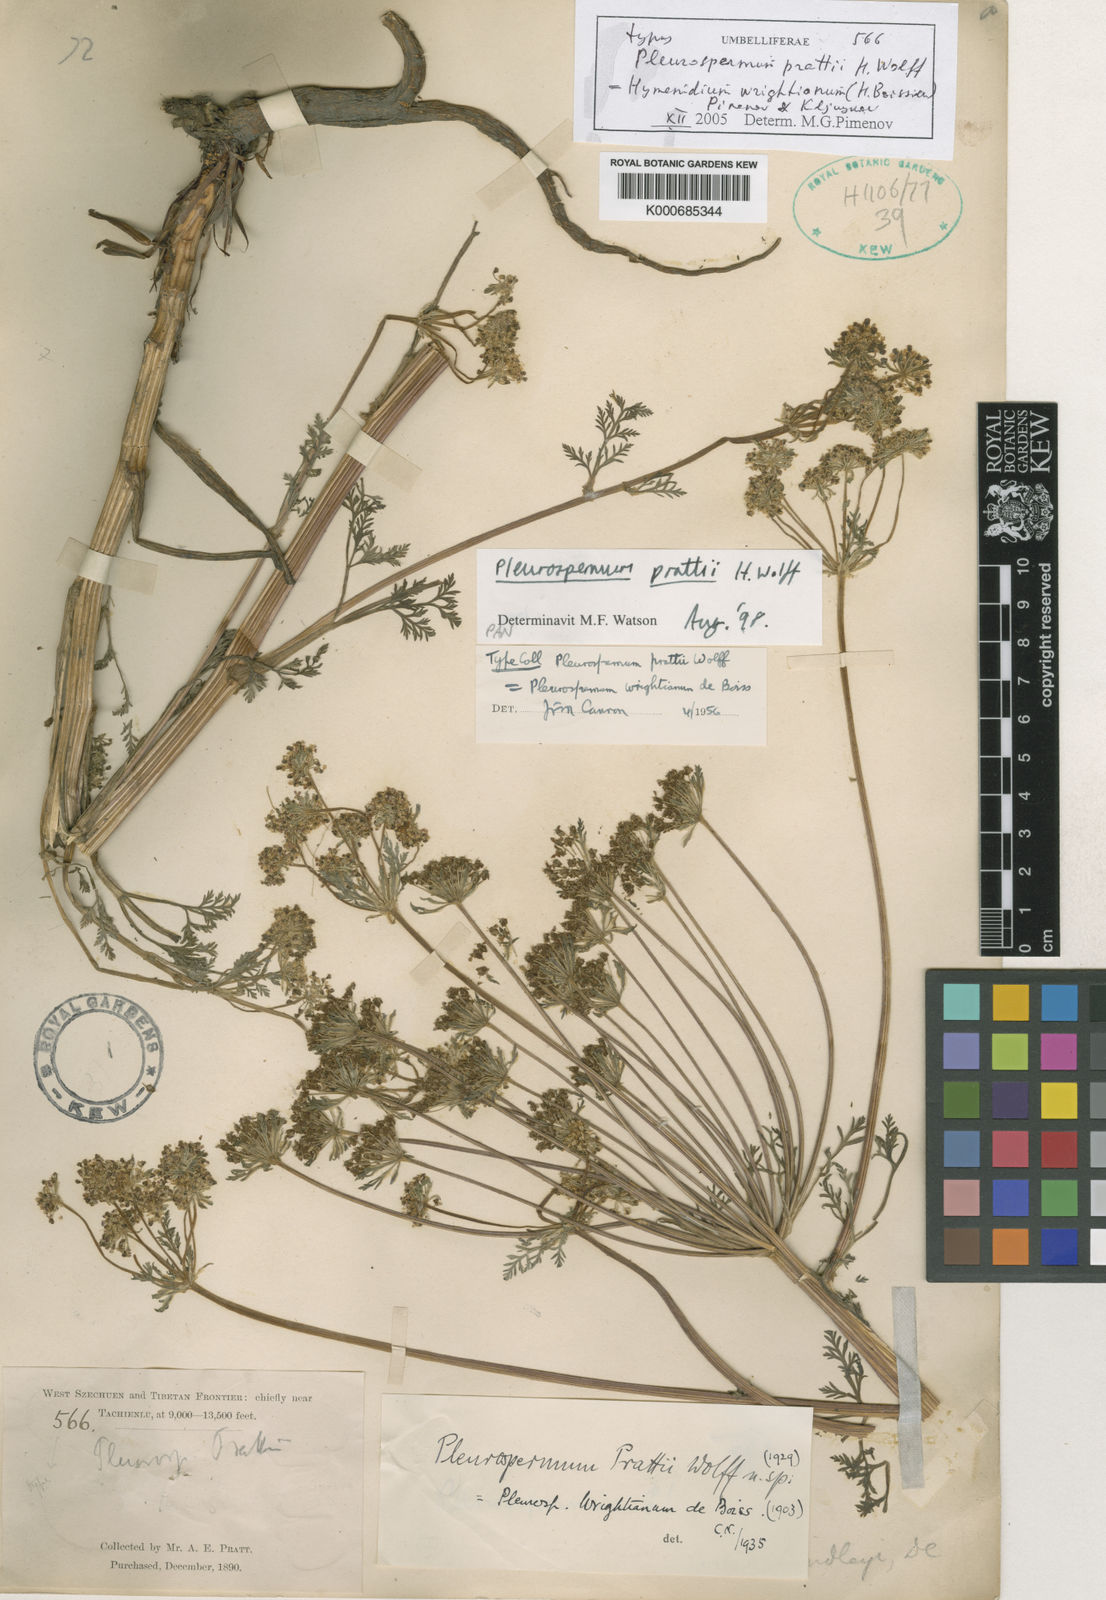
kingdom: Plantae
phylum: Tracheophyta
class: Magnoliopsida
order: Apiales
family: Apiaceae
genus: Hymenidium
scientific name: Hymenidium wrightianum
